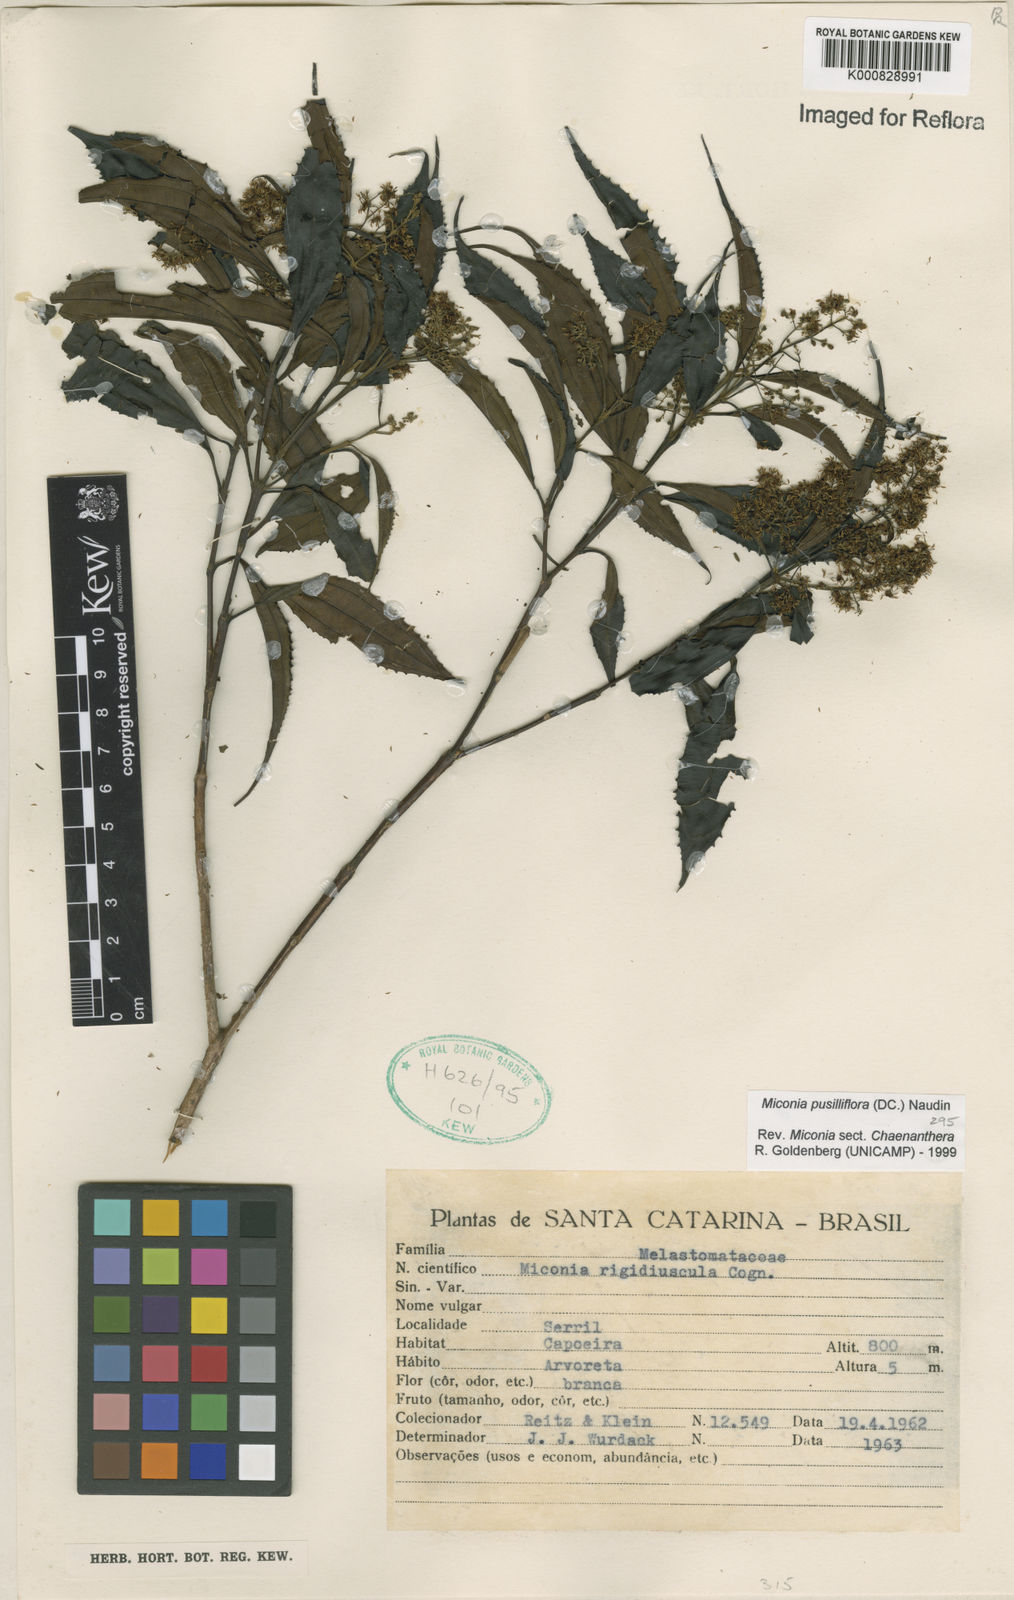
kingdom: Plantae
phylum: Tracheophyta
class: Magnoliopsida
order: Myrtales
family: Melastomataceae
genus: Miconia
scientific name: Miconia pusilliflora
